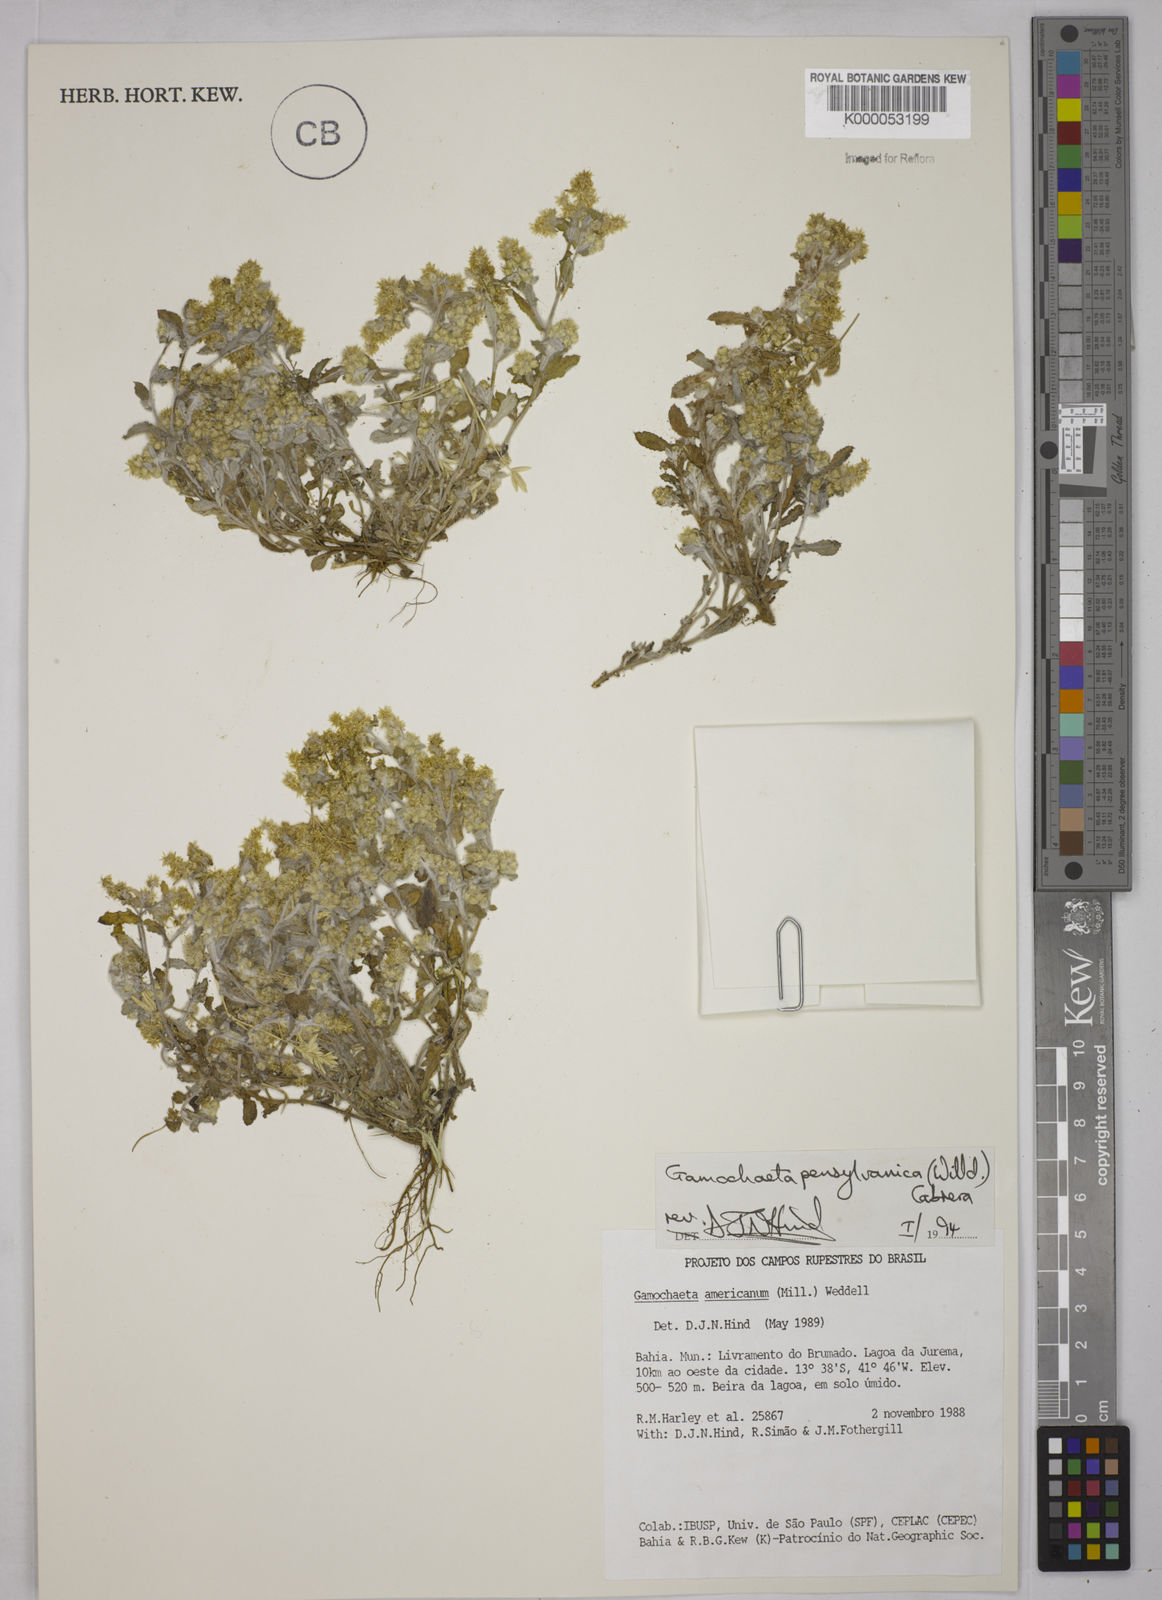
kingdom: Plantae
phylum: Tracheophyta
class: Magnoliopsida
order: Asterales
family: Asteraceae
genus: Gamochaeta
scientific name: Gamochaeta pensylvanica
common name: Pennsylvania everlasting
